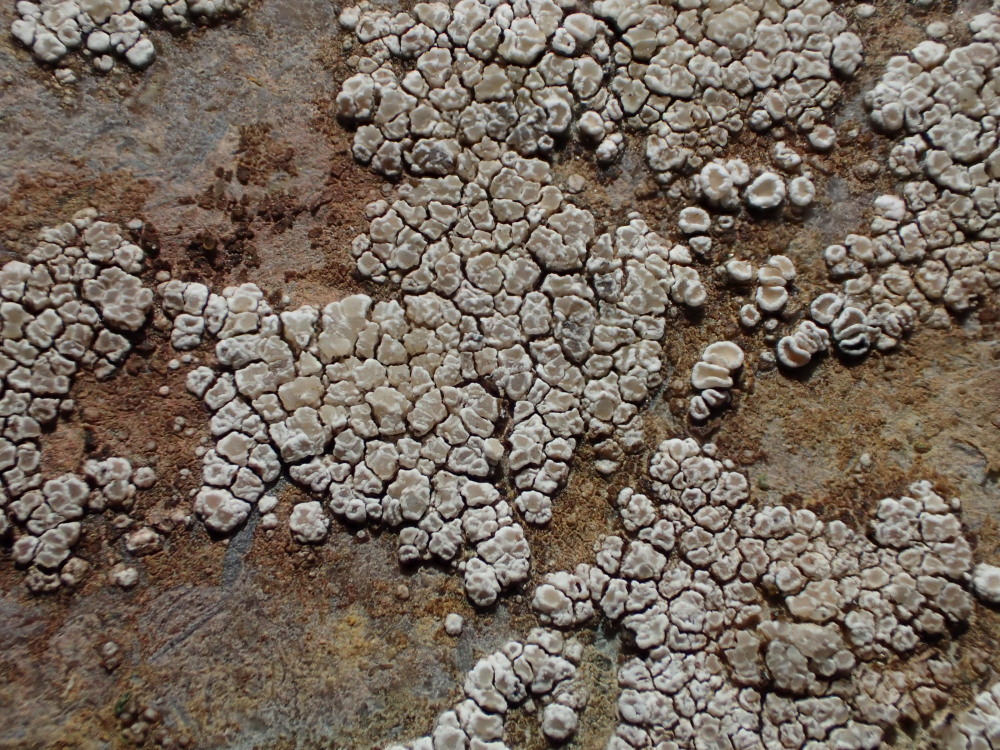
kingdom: Fungi
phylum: Ascomycota
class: Lecanoromycetes
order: Lecanorales
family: Lecanoraceae
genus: Polyozosia
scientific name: Polyozosia albescens
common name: cement-kantskivelav
